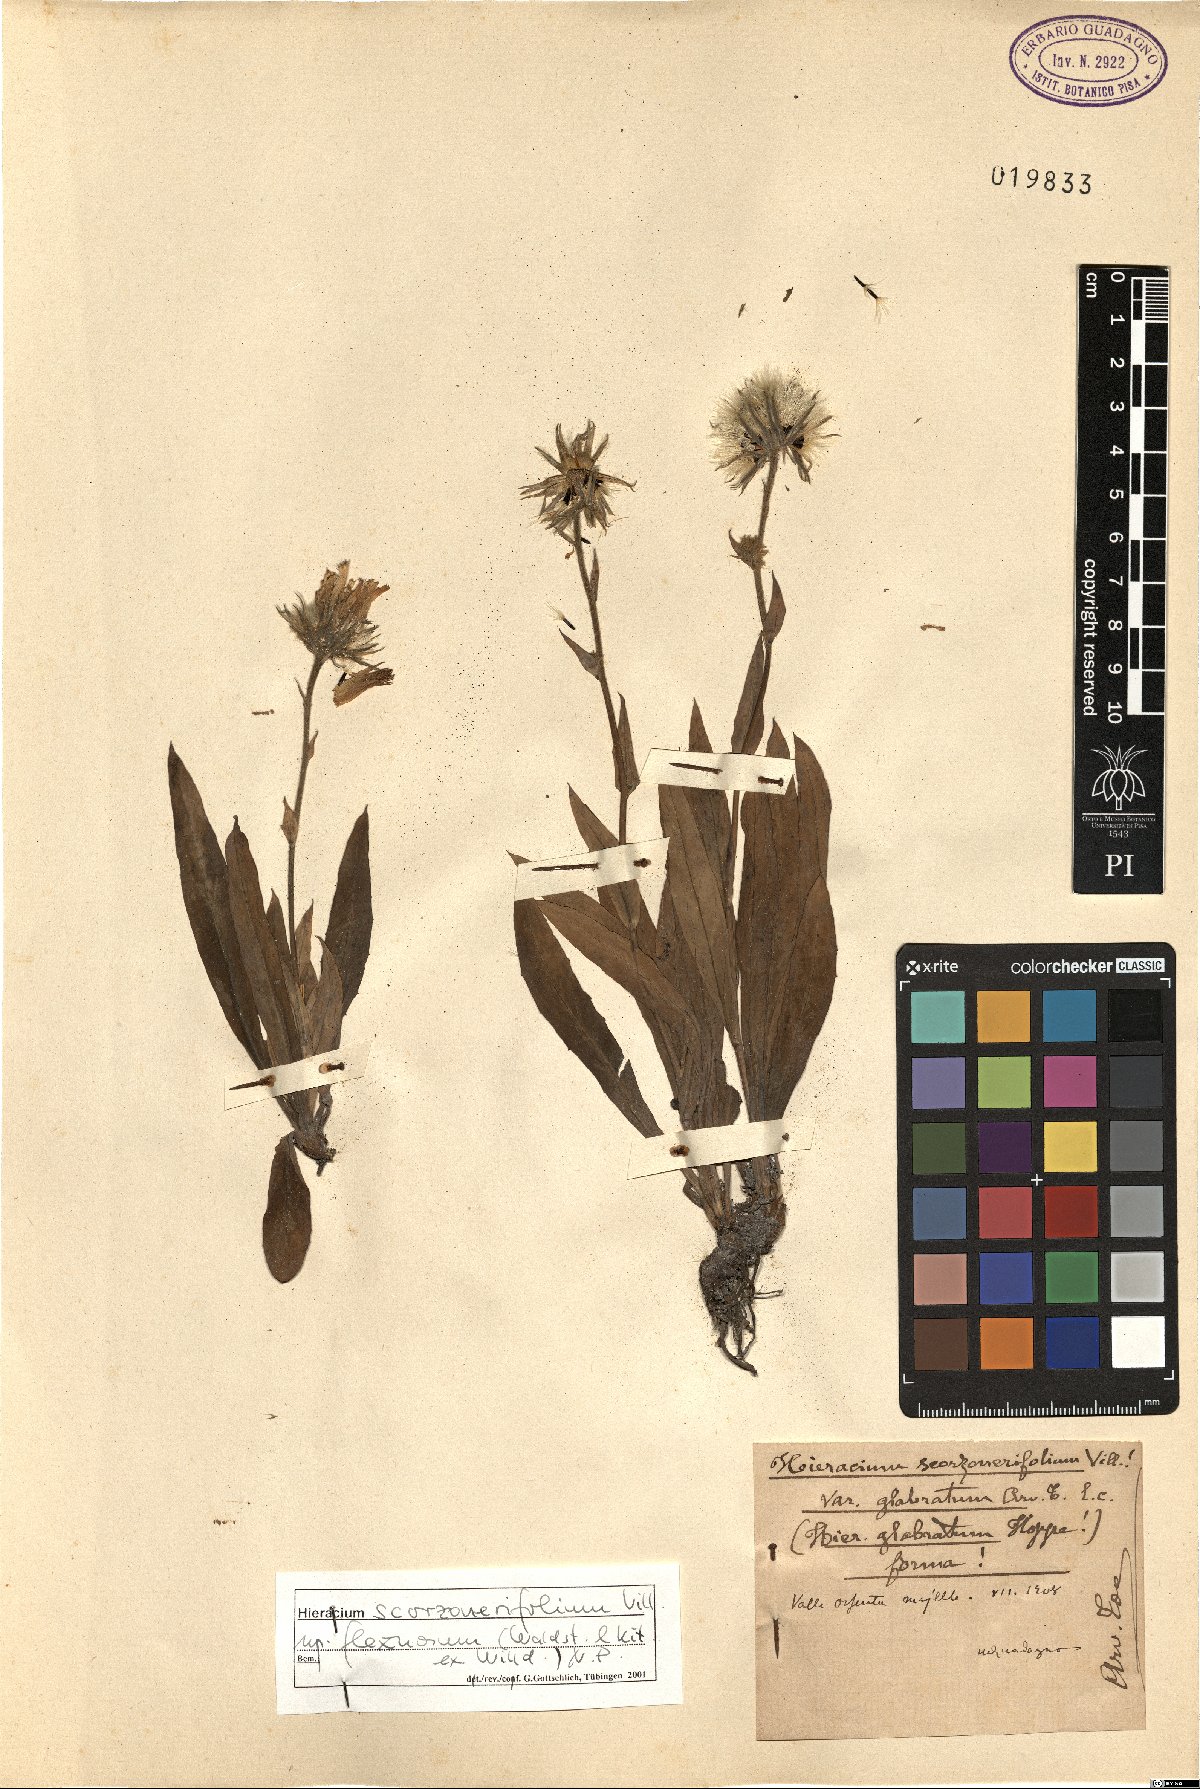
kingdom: Plantae
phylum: Tracheophyta
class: Magnoliopsida
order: Asterales
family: Asteraceae
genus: Hieracium
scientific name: Hieracium scorzonerifolium
